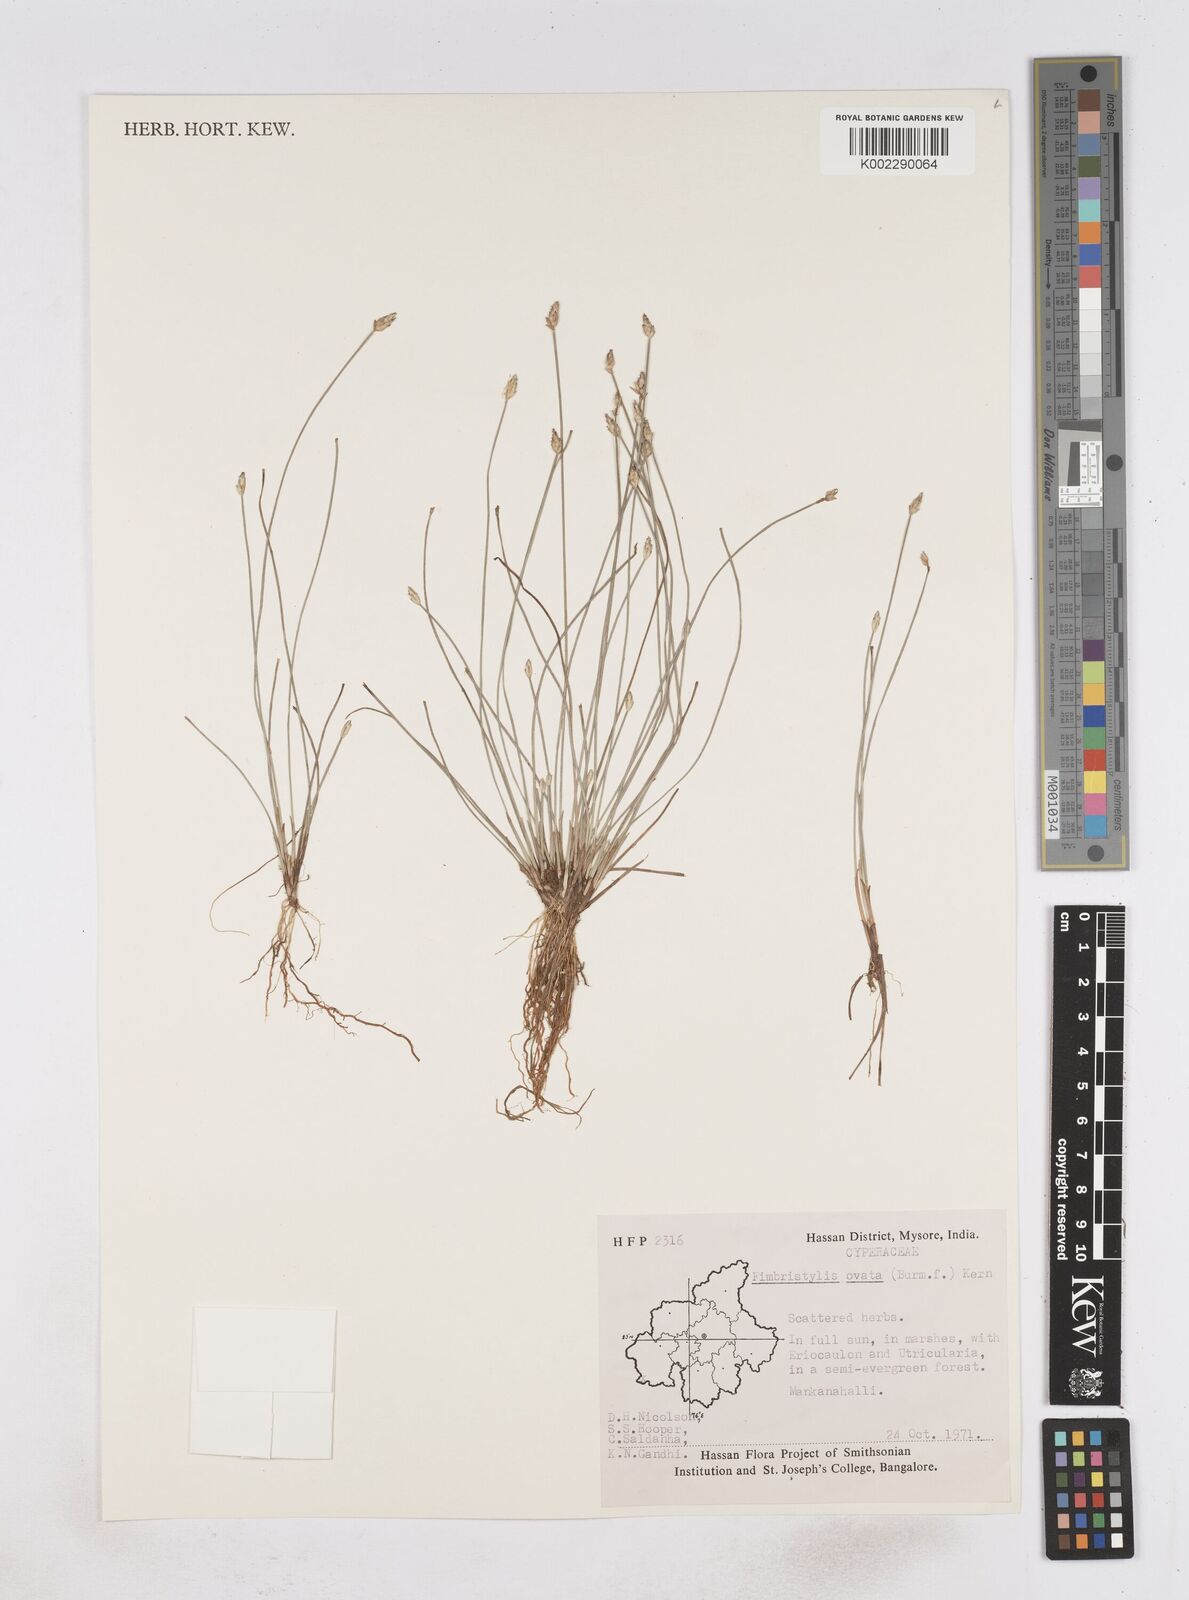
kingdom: Plantae
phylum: Tracheophyta
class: Liliopsida
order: Poales
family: Cyperaceae
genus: Abildgaardia
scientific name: Abildgaardia ovata
